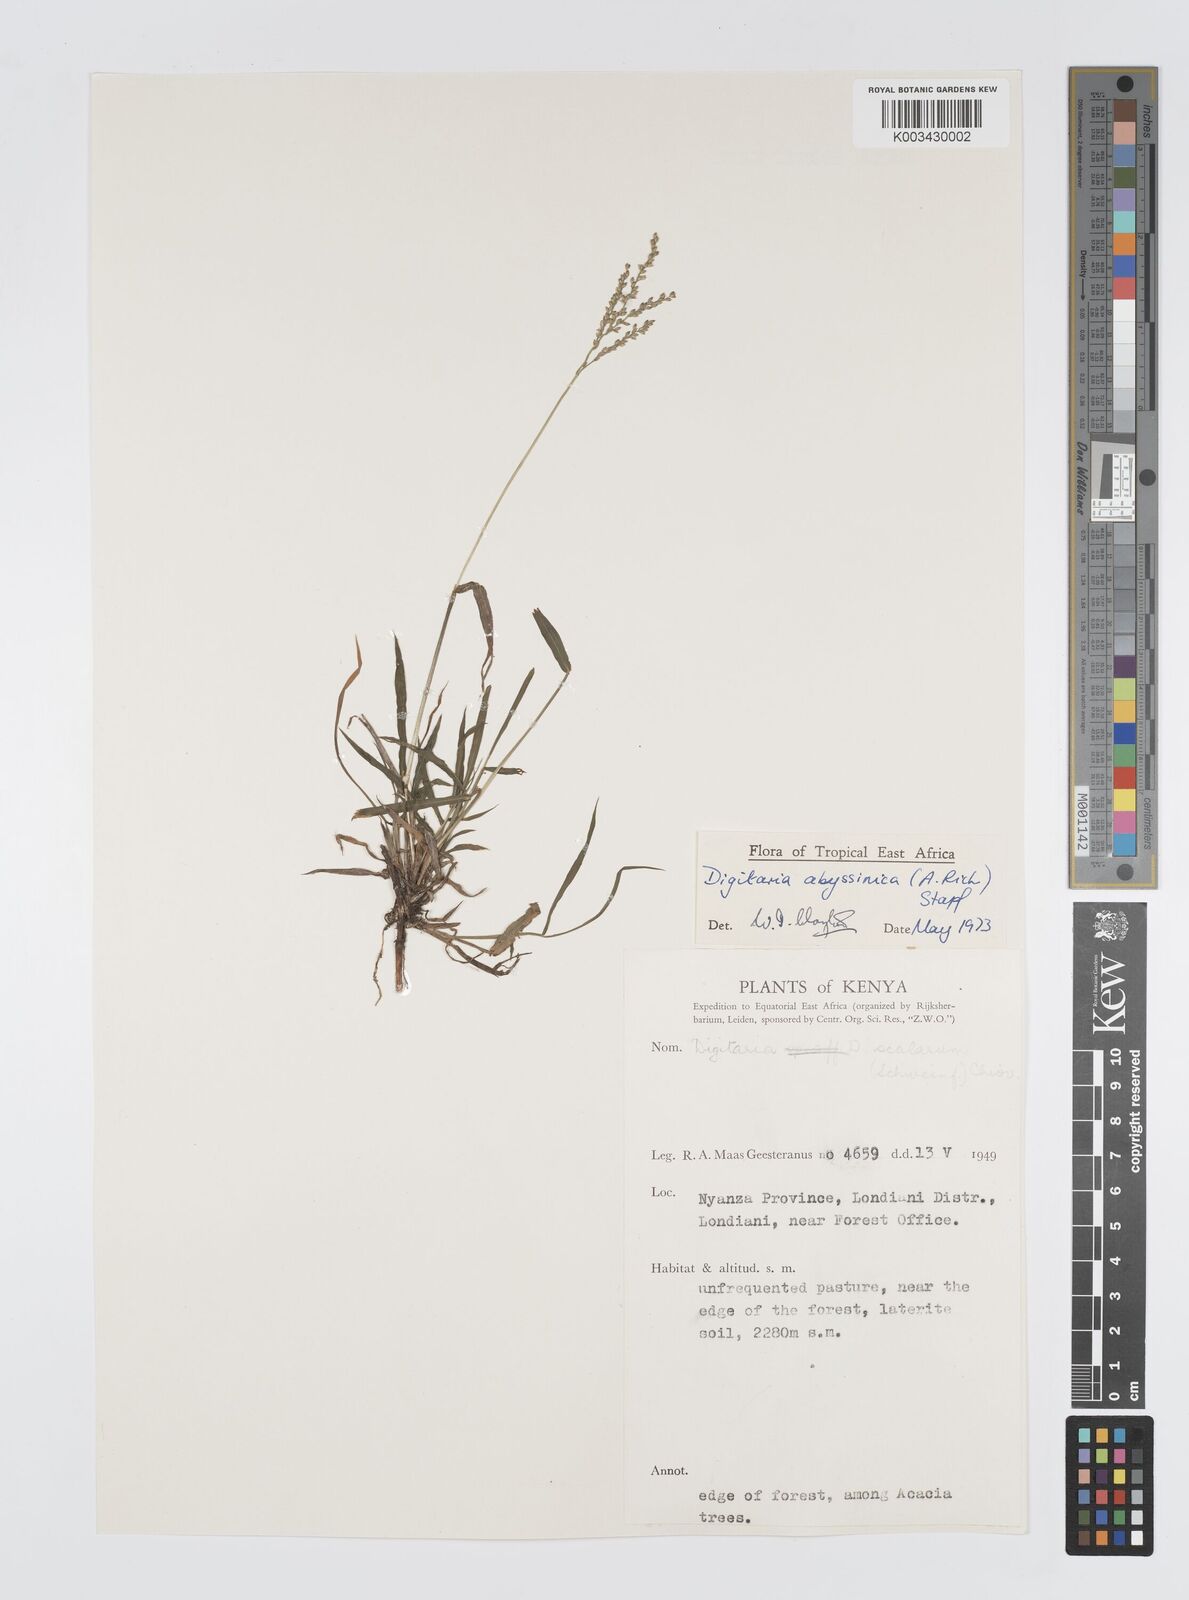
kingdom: Plantae
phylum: Tracheophyta
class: Liliopsida
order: Poales
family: Poaceae
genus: Digitaria
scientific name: Digitaria abyssinica
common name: African couchgrass
